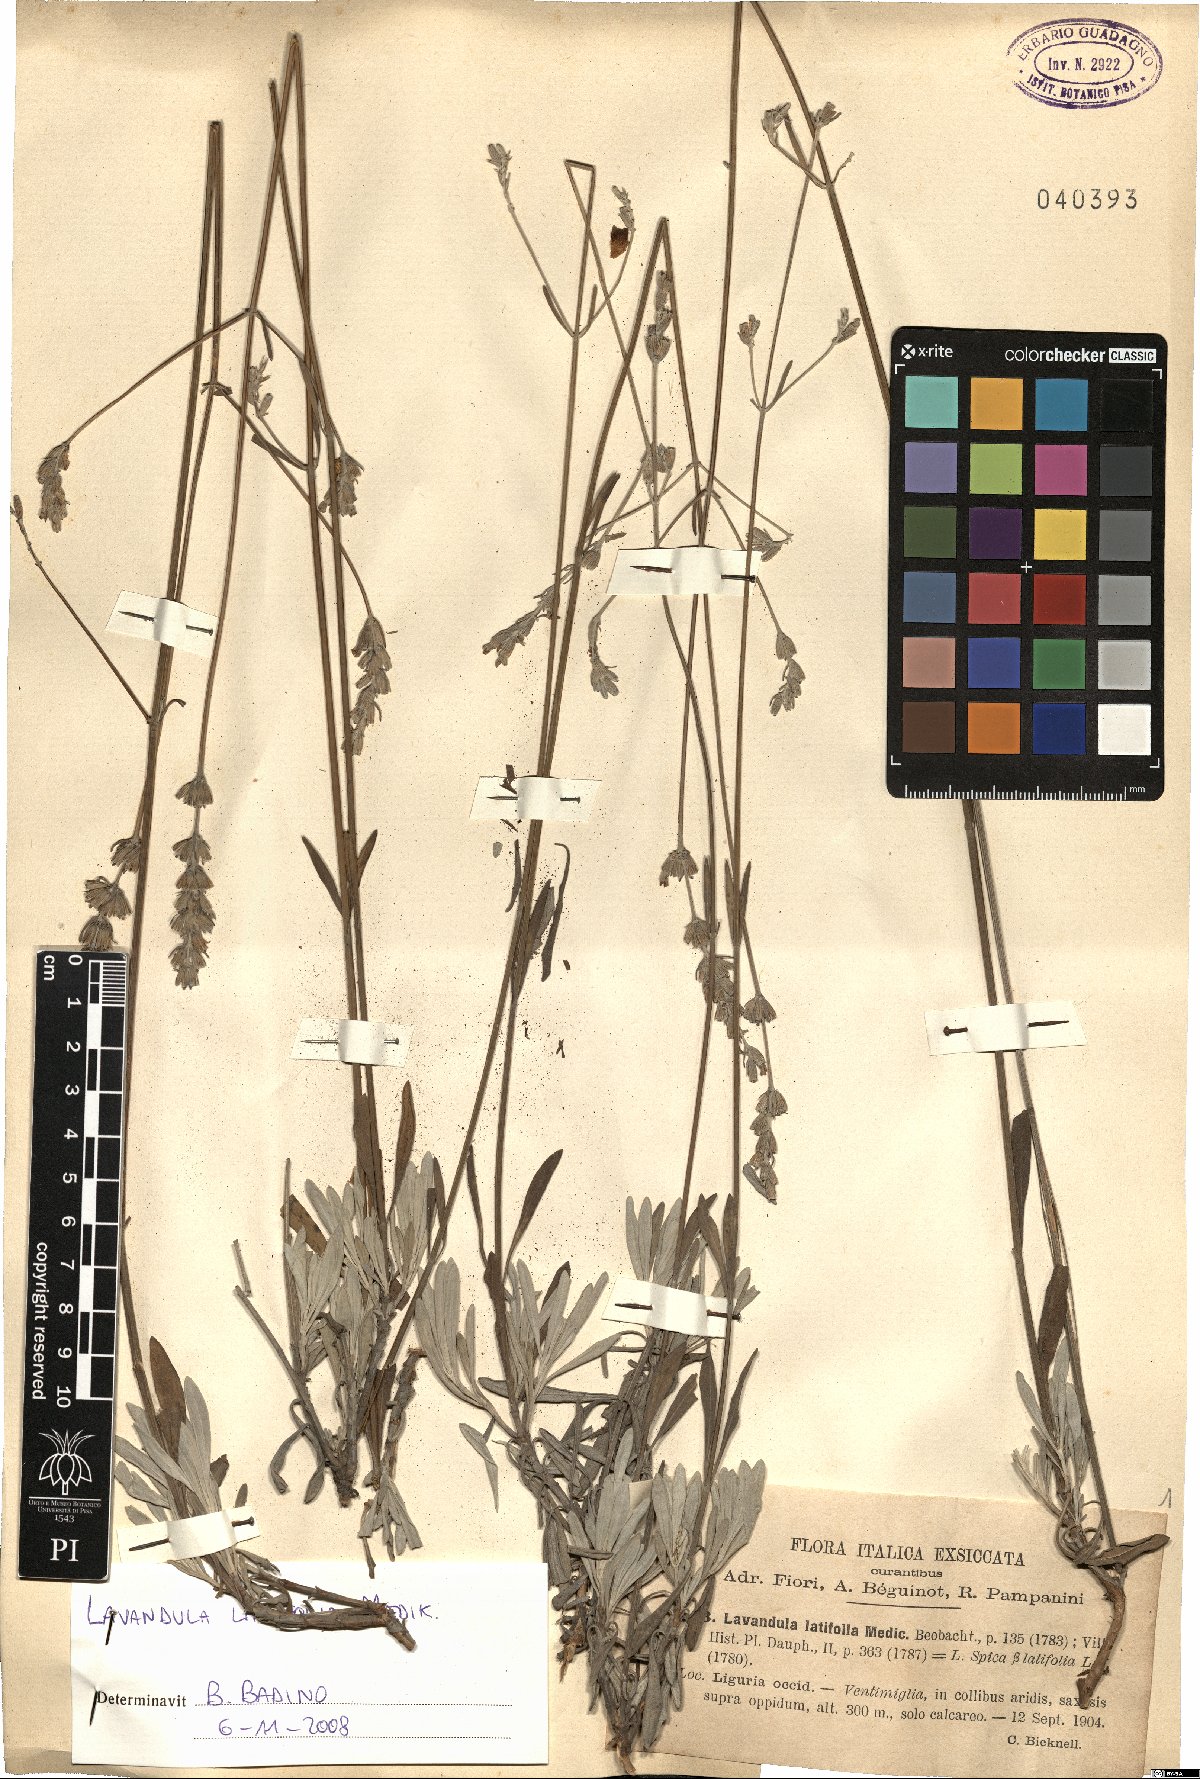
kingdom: Plantae
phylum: Tracheophyta
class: Magnoliopsida
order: Lamiales
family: Lamiaceae
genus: Lavandula
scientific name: Lavandula latifolia
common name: Spike lavendar
